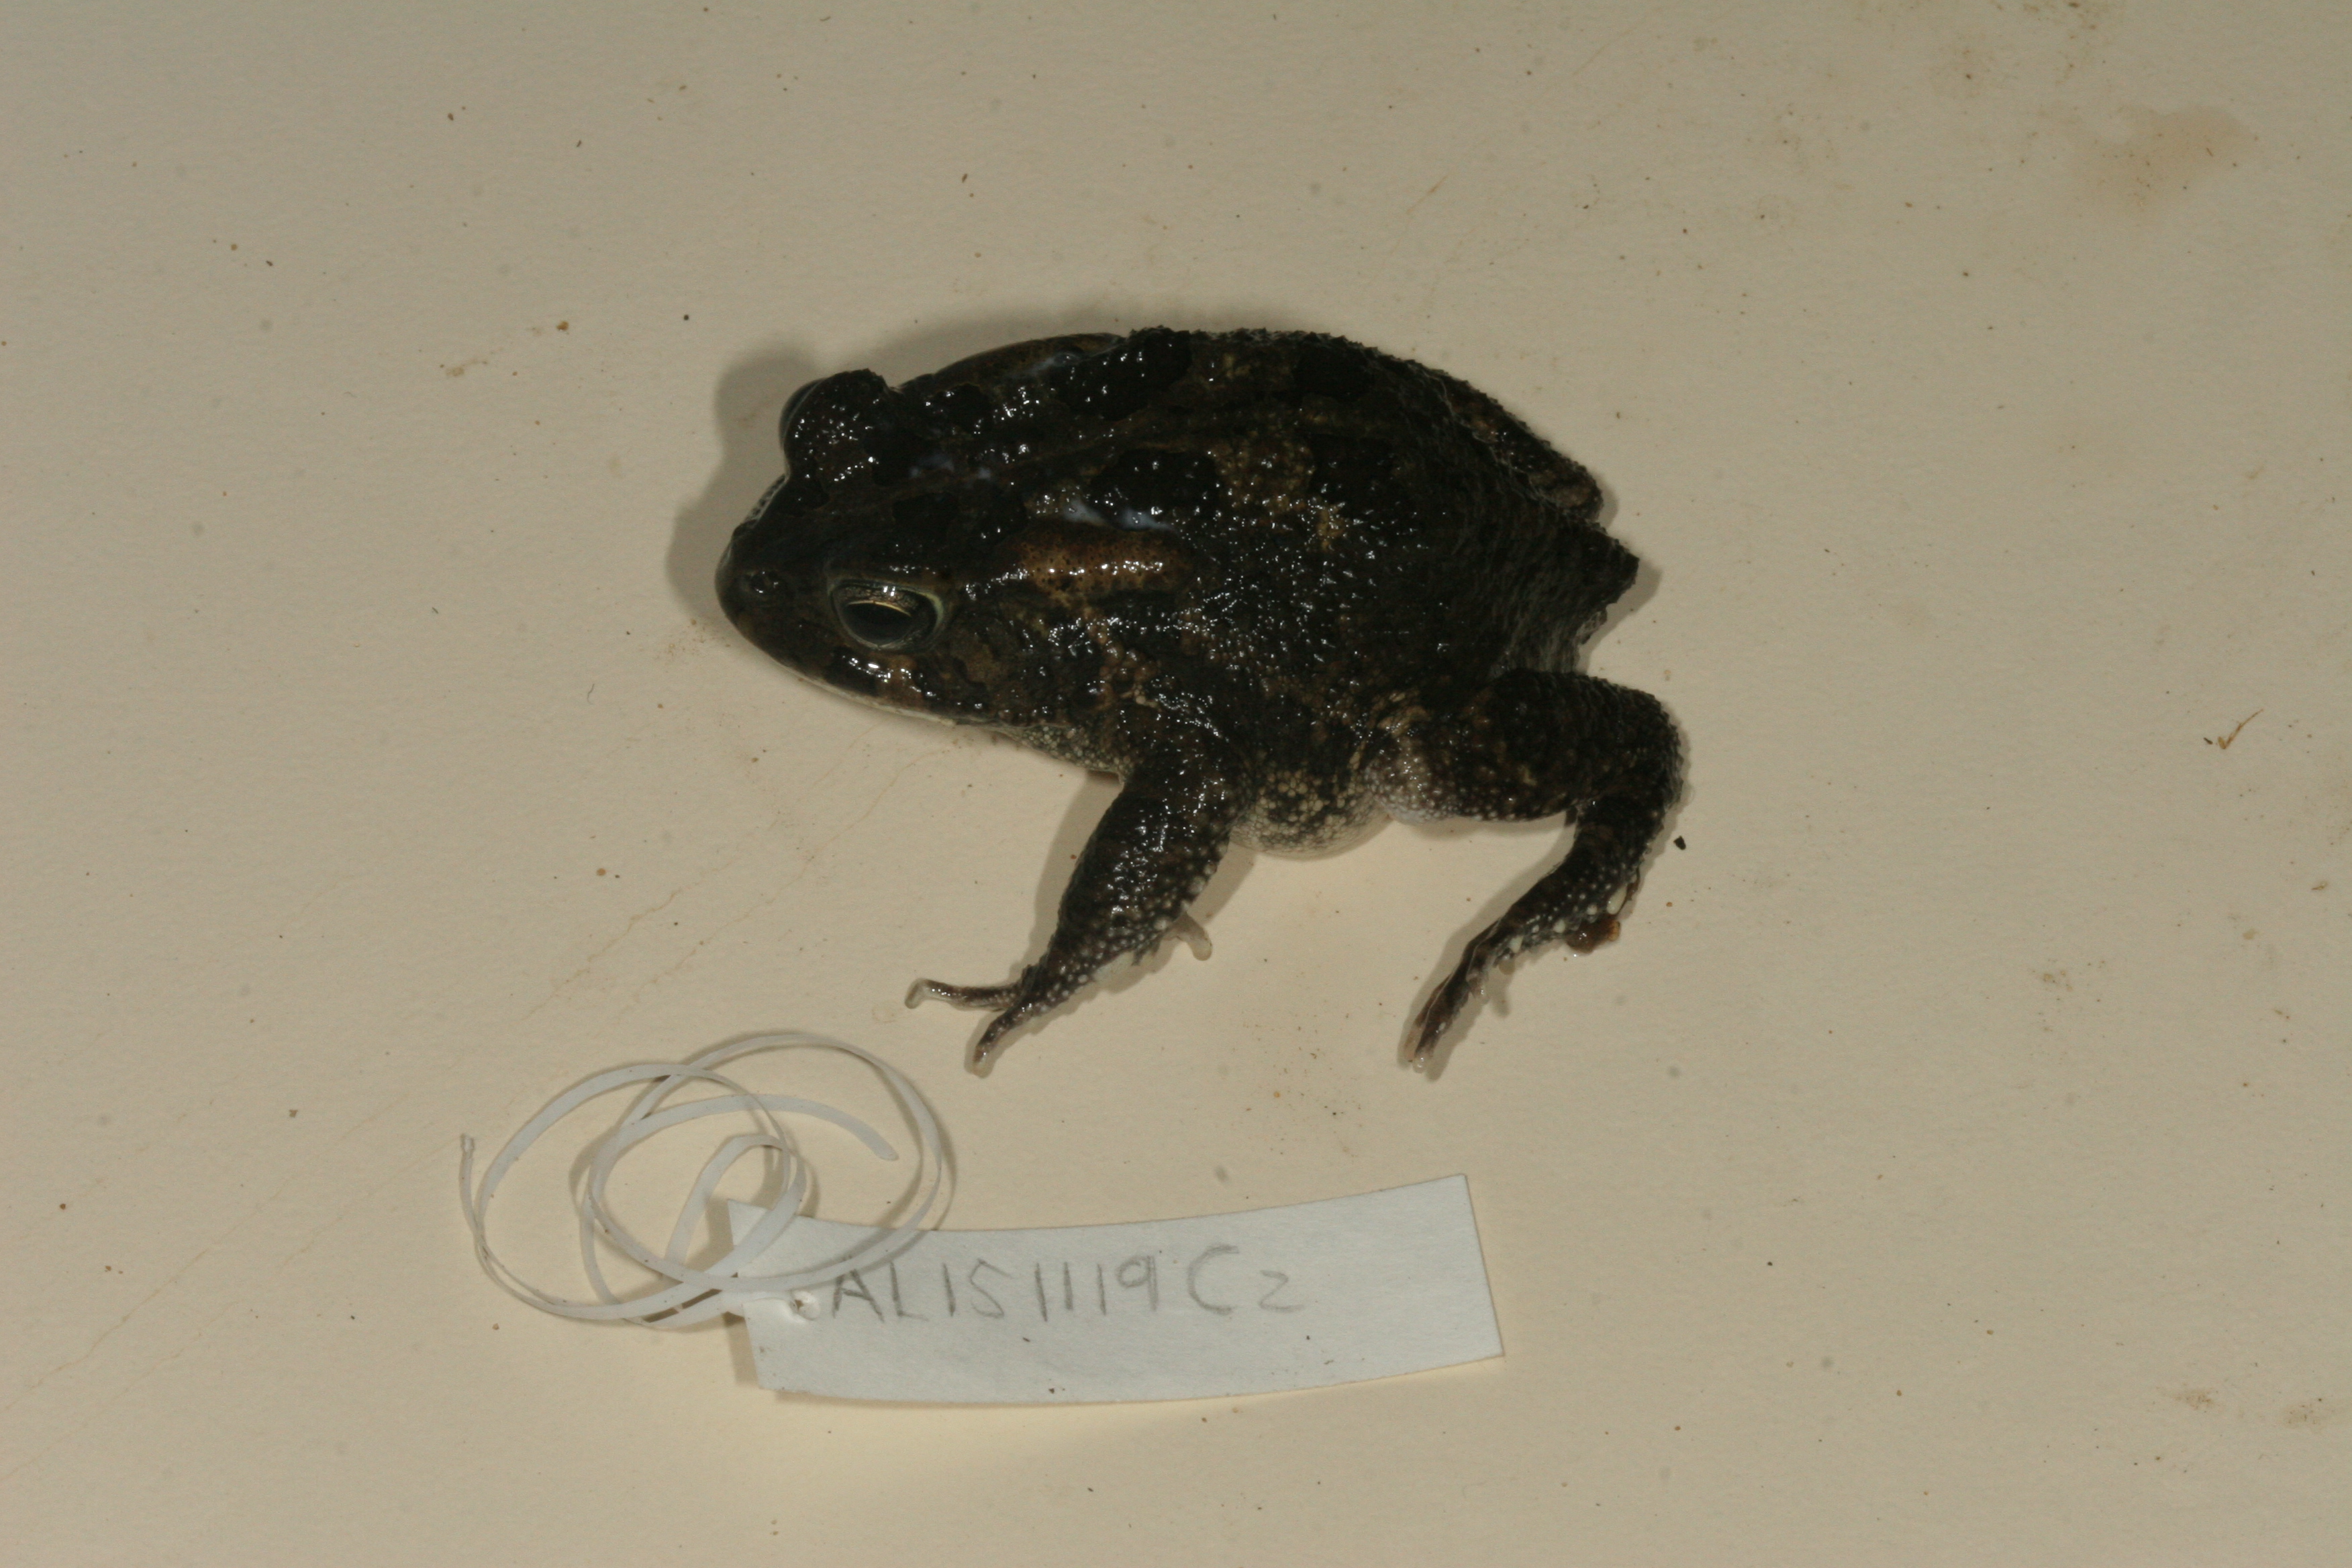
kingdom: Animalia
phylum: Chordata
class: Amphibia
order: Anura
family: Bufonidae
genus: Sclerophrys
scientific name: Sclerophrys garmani
